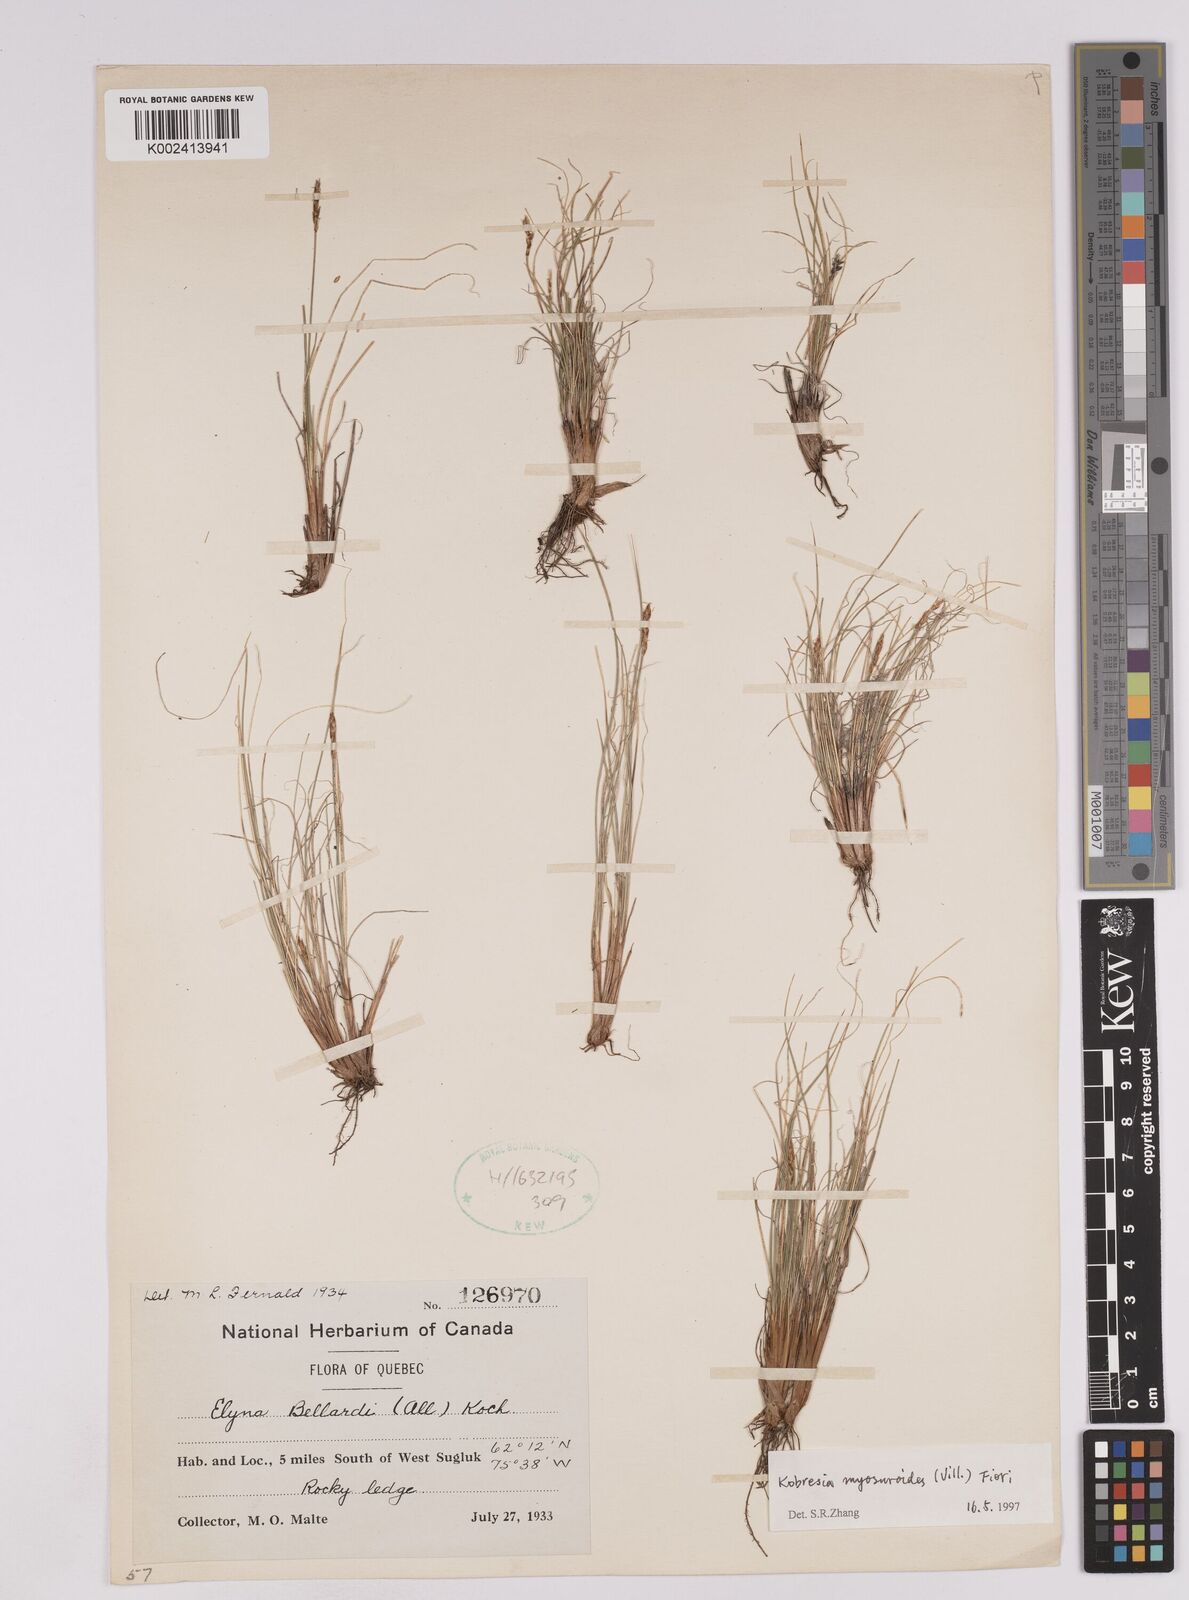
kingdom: Plantae
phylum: Tracheophyta
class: Liliopsida
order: Poales
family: Cyperaceae
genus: Carex
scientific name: Carex myosuroides
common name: Bellard's bog sedge
